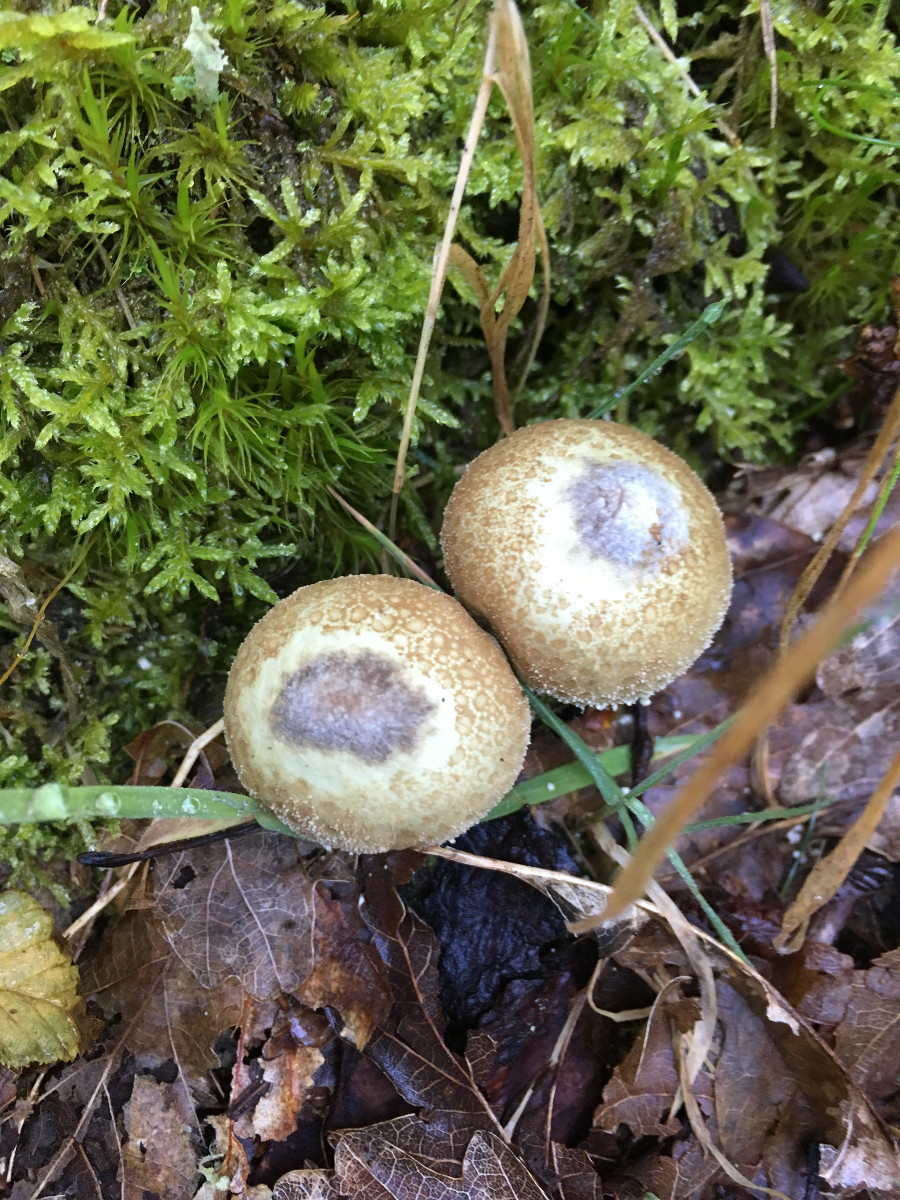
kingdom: Fungi
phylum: Basidiomycota
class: Agaricomycetes
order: Agaricales
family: Agaricaceae
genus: Lycoperdon
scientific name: Lycoperdon
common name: støvbold
